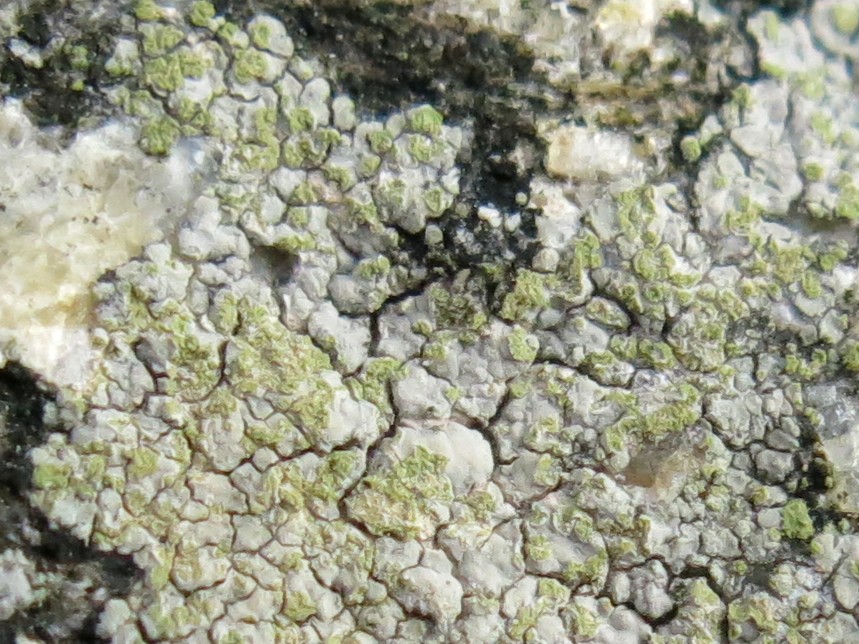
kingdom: Fungi
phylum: Ascomycota
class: Lecanoromycetes
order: Baeomycetales
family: Trapeliaceae
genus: Kleopowiella
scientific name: Kleopowiella placodioides
